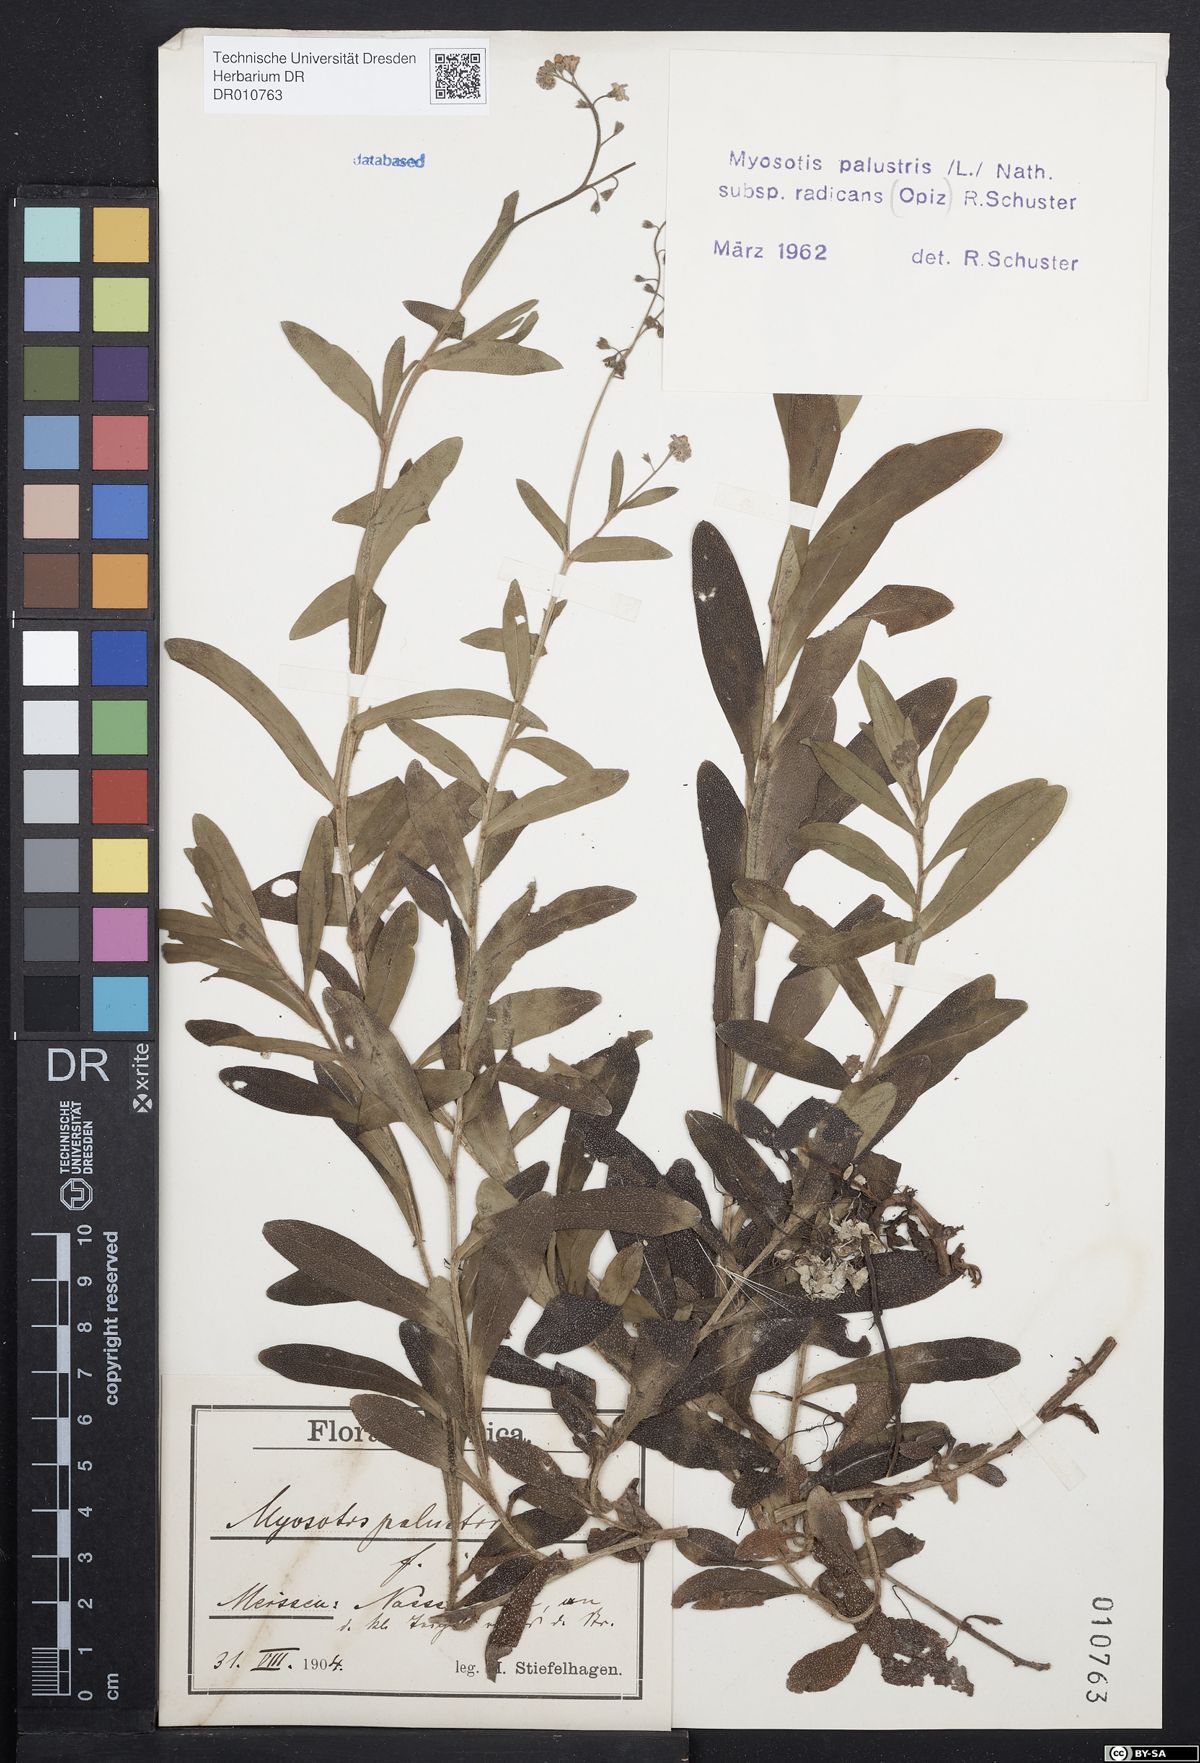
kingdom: Plantae
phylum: Tracheophyta
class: Magnoliopsida
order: Boraginales
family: Boraginaceae
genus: Myosotis
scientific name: Myosotis scorpioides
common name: Water forget-me-not
